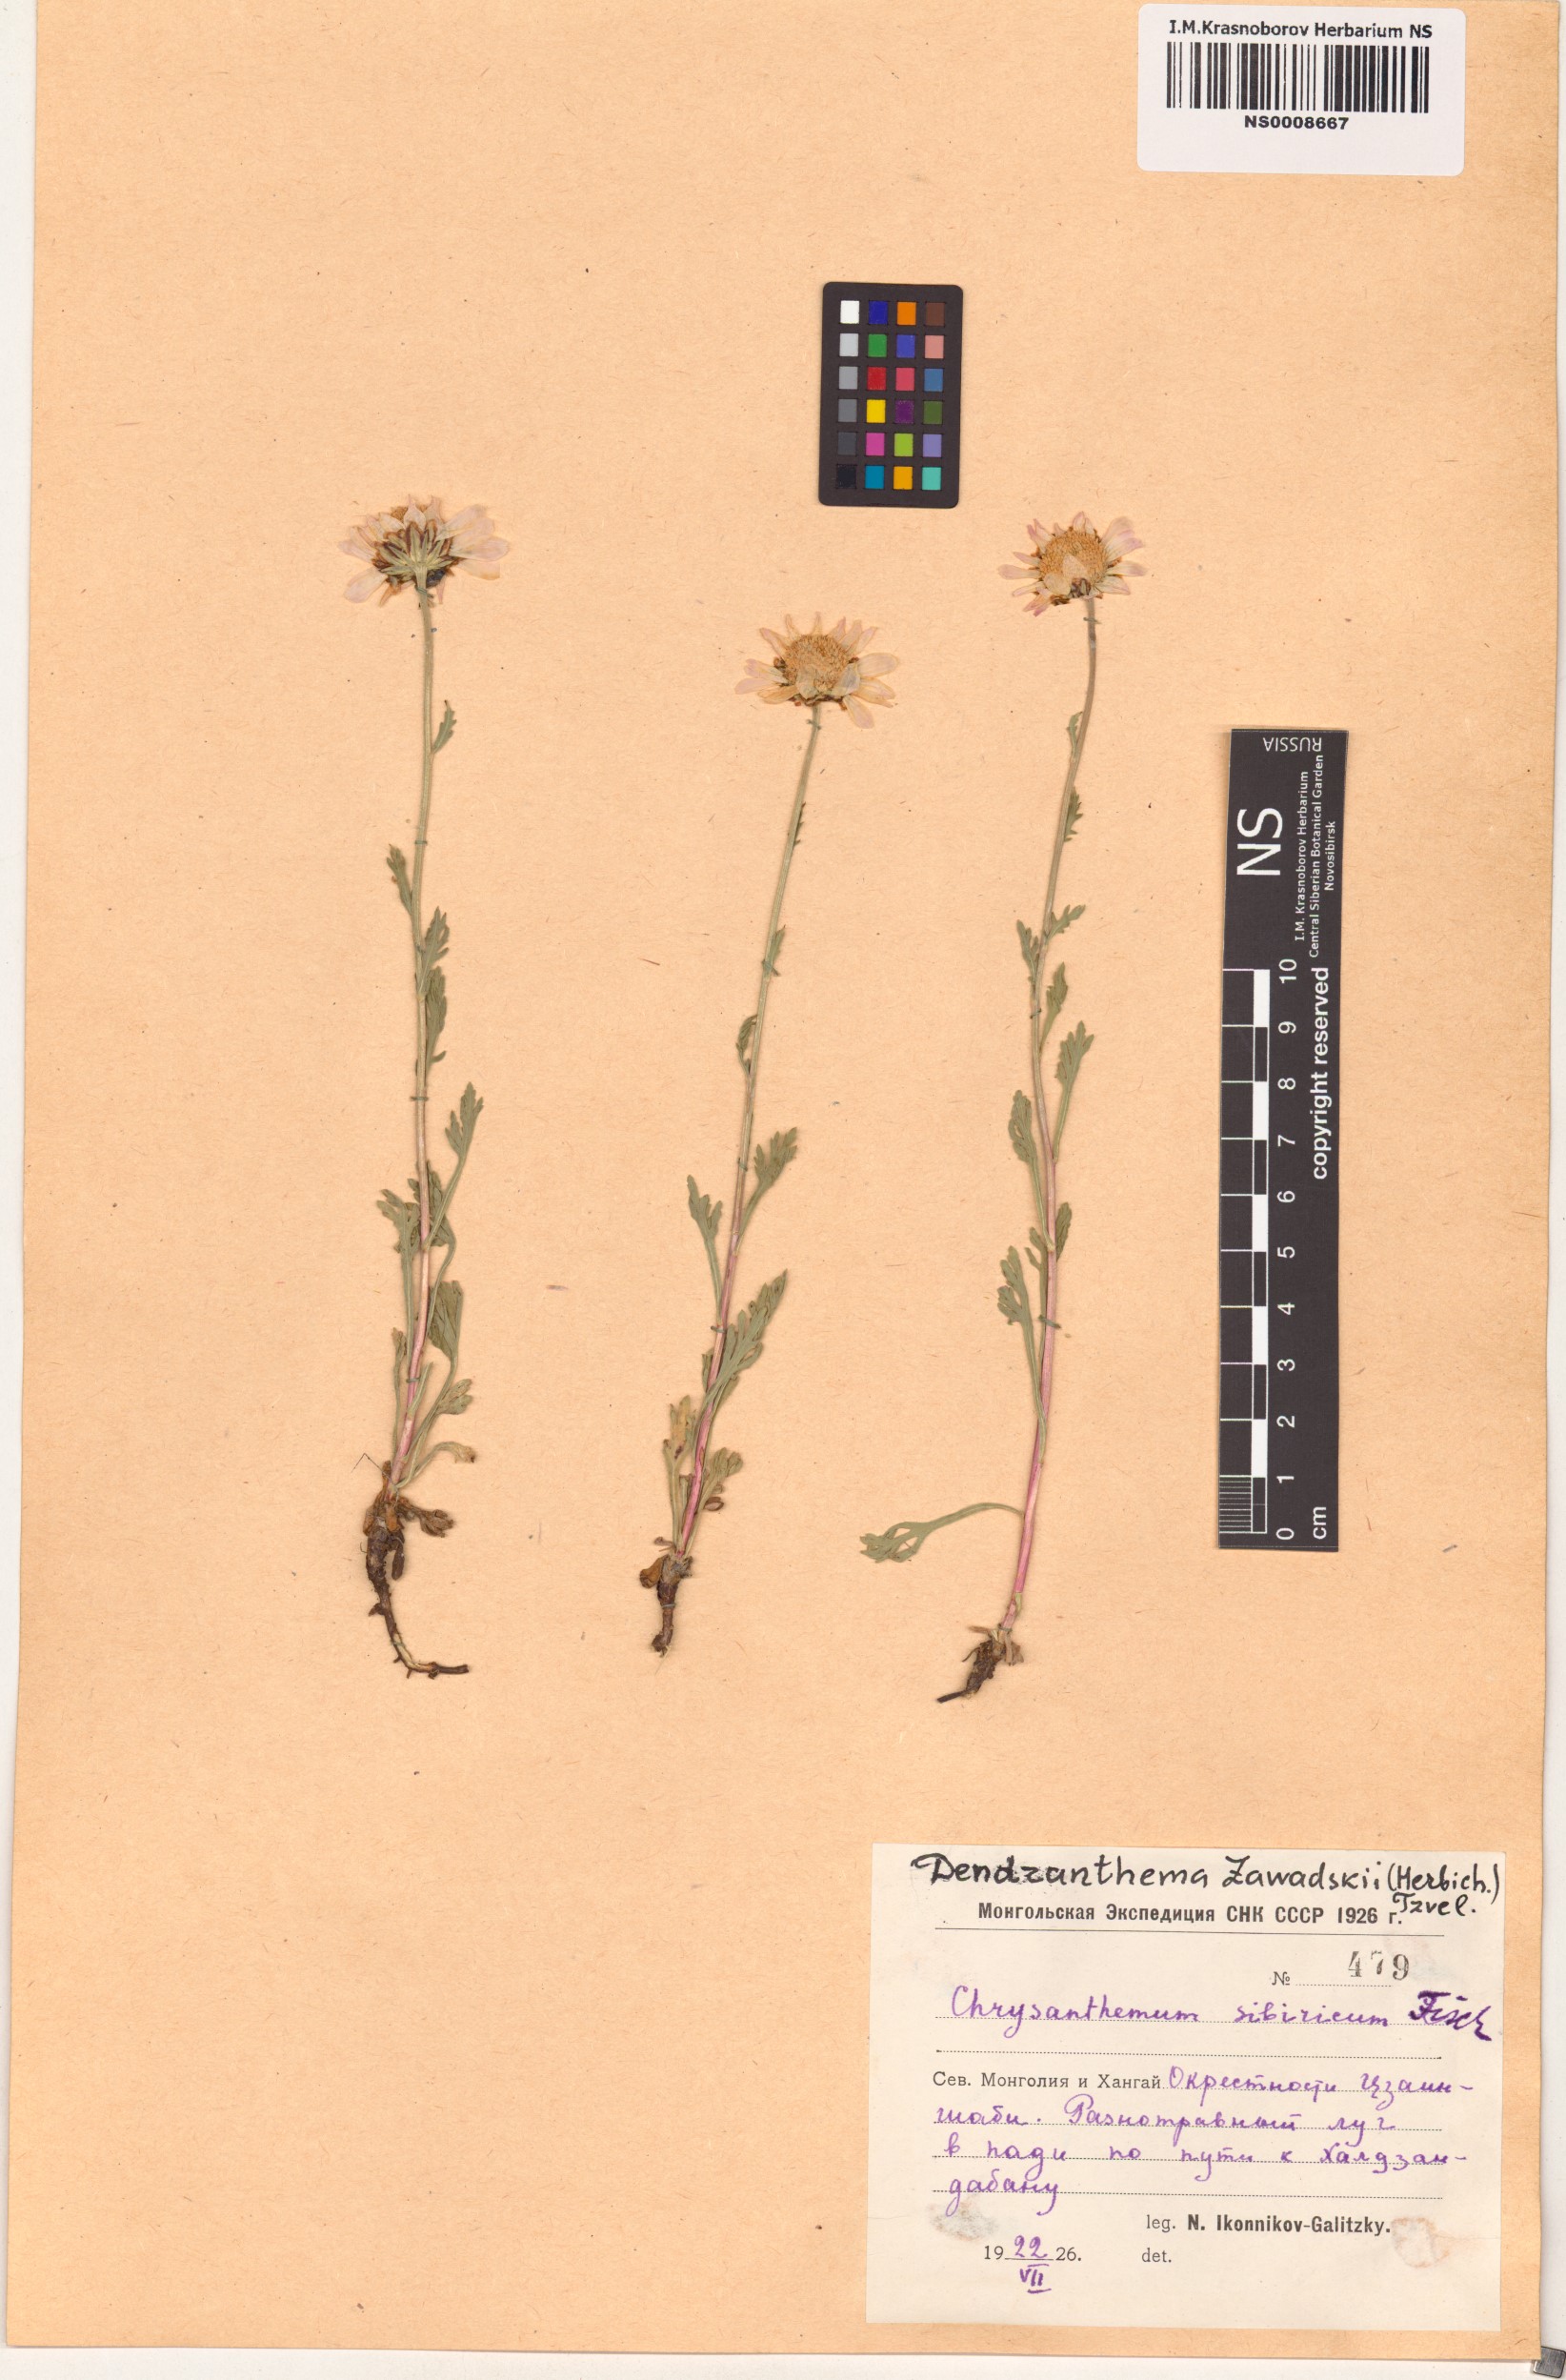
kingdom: Plantae
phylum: Tracheophyta
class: Magnoliopsida
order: Asterales
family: Asteraceae
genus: Chrysanthemum
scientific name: Chrysanthemum zawadzkii
